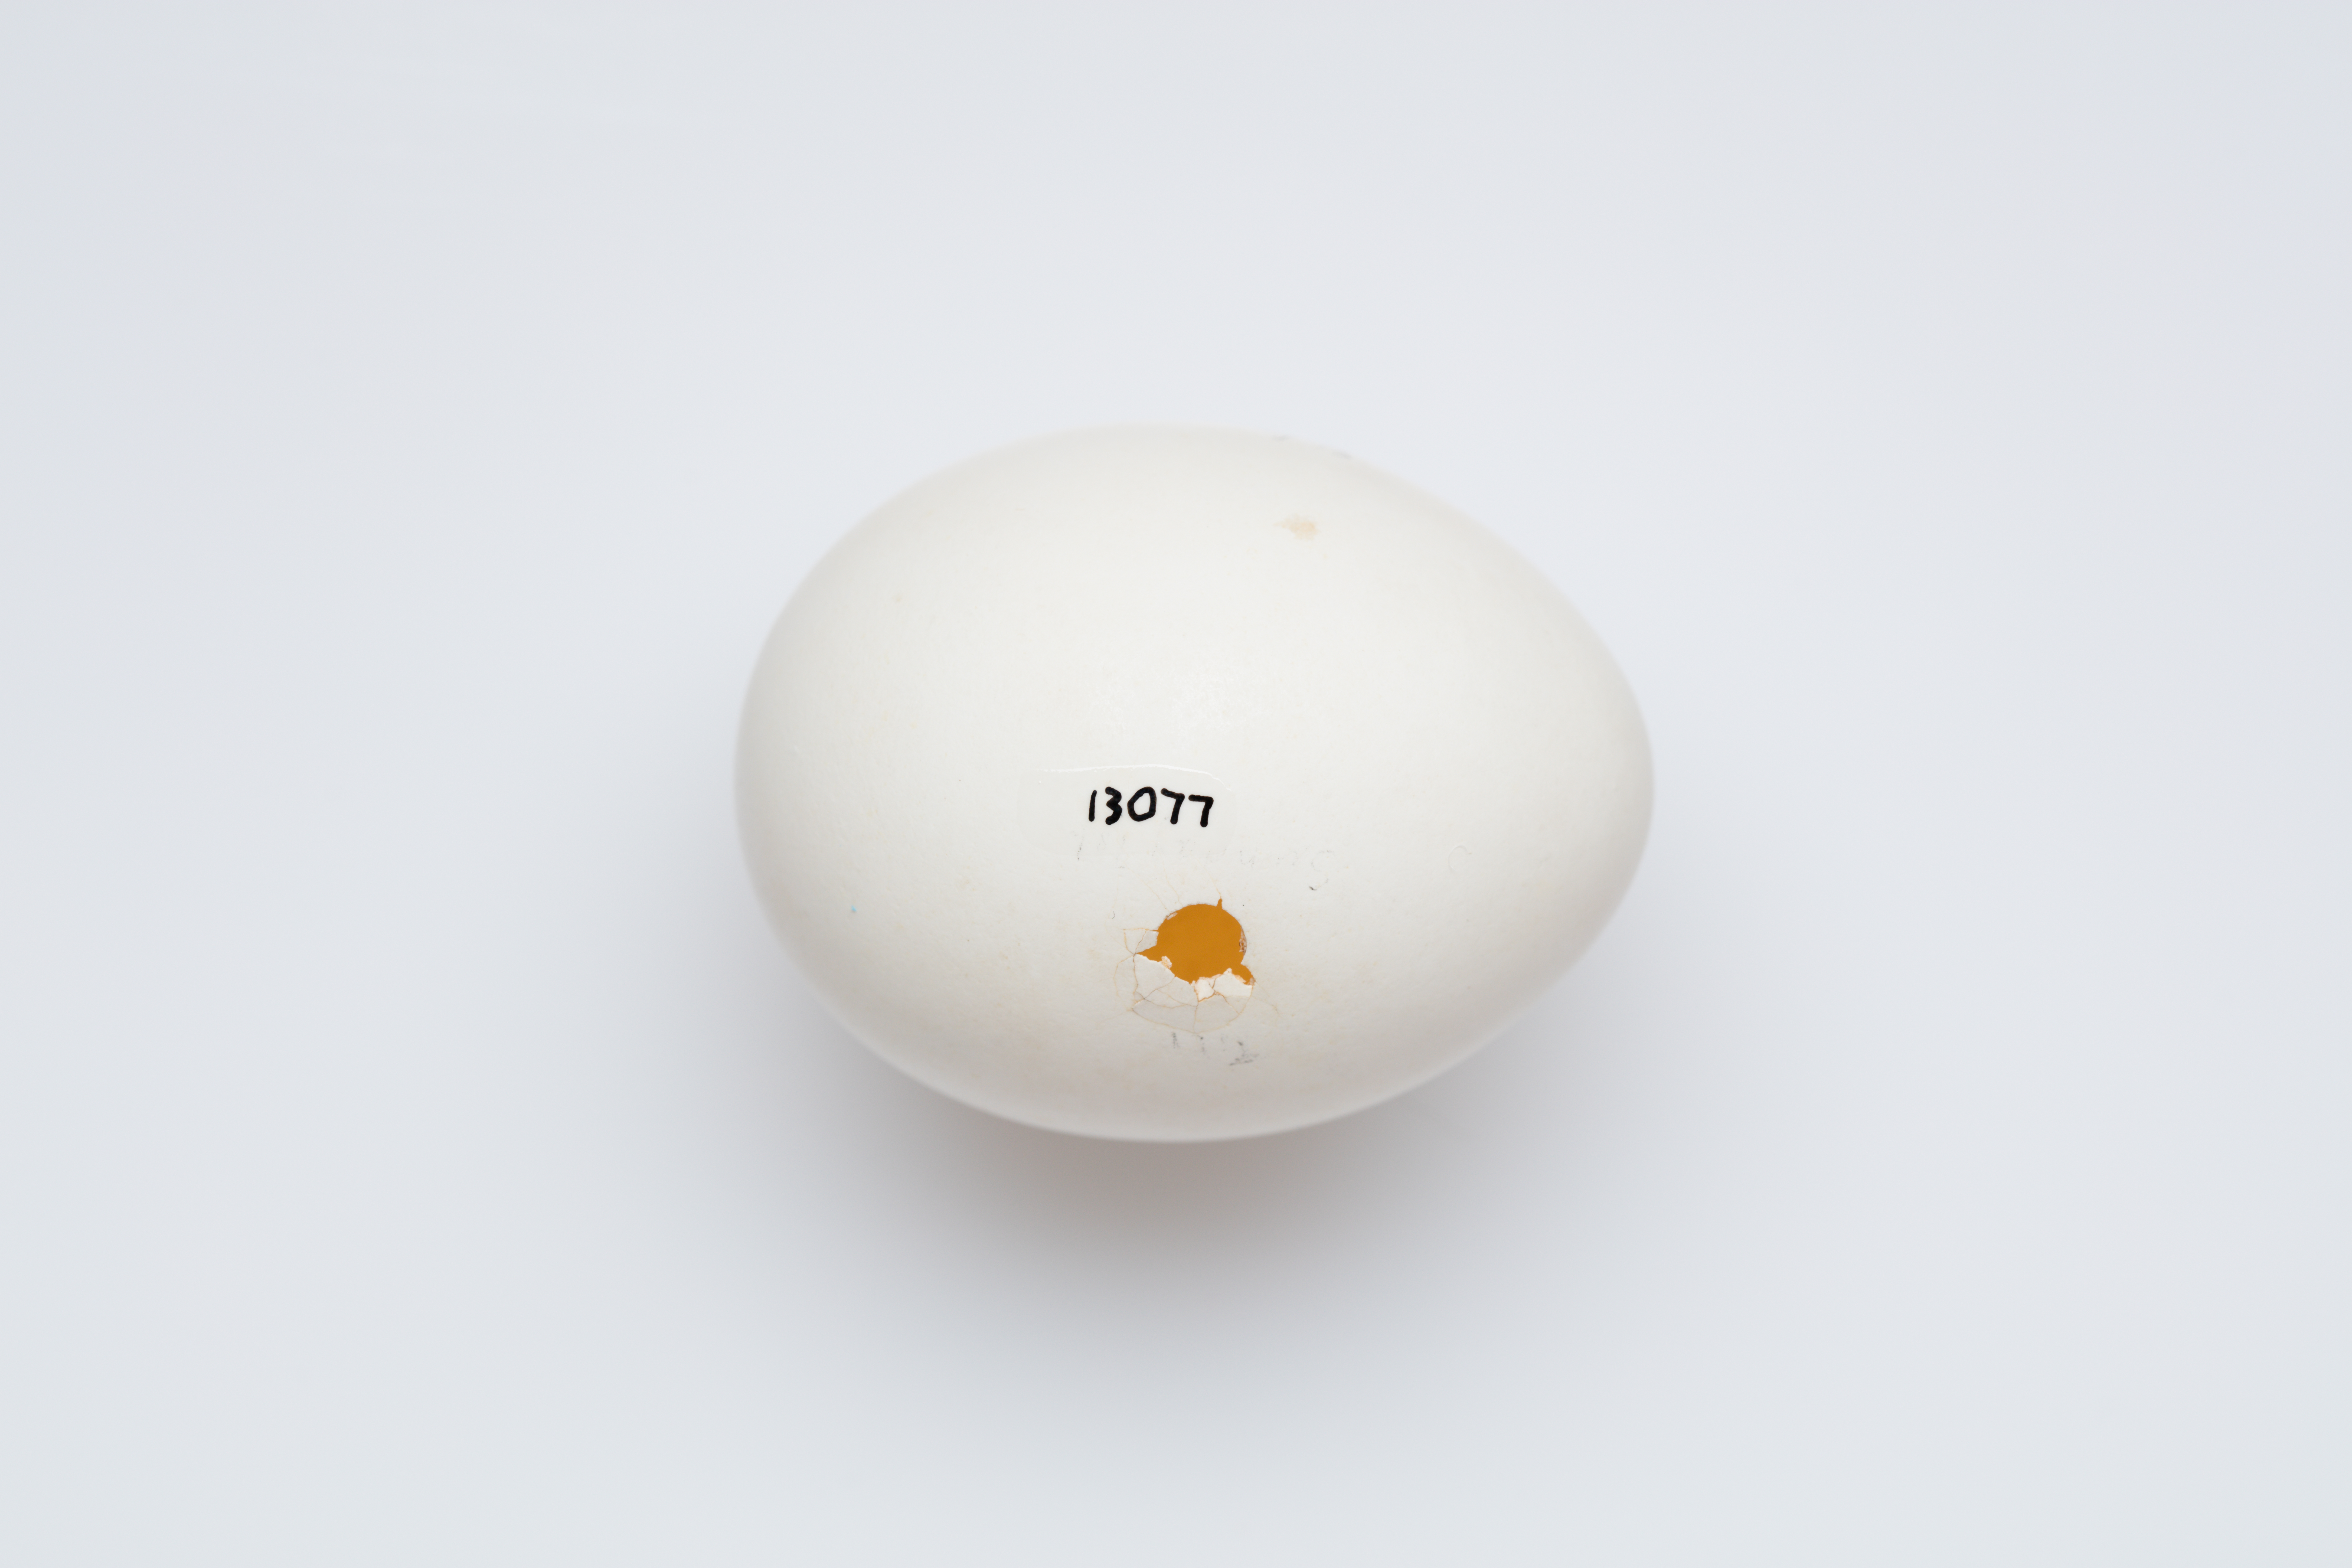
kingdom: Animalia
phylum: Chordata
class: Aves
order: Procellariiformes
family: Procellariidae
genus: Pterodroma
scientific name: Pterodroma nigripennis
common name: Black-winged petrel
